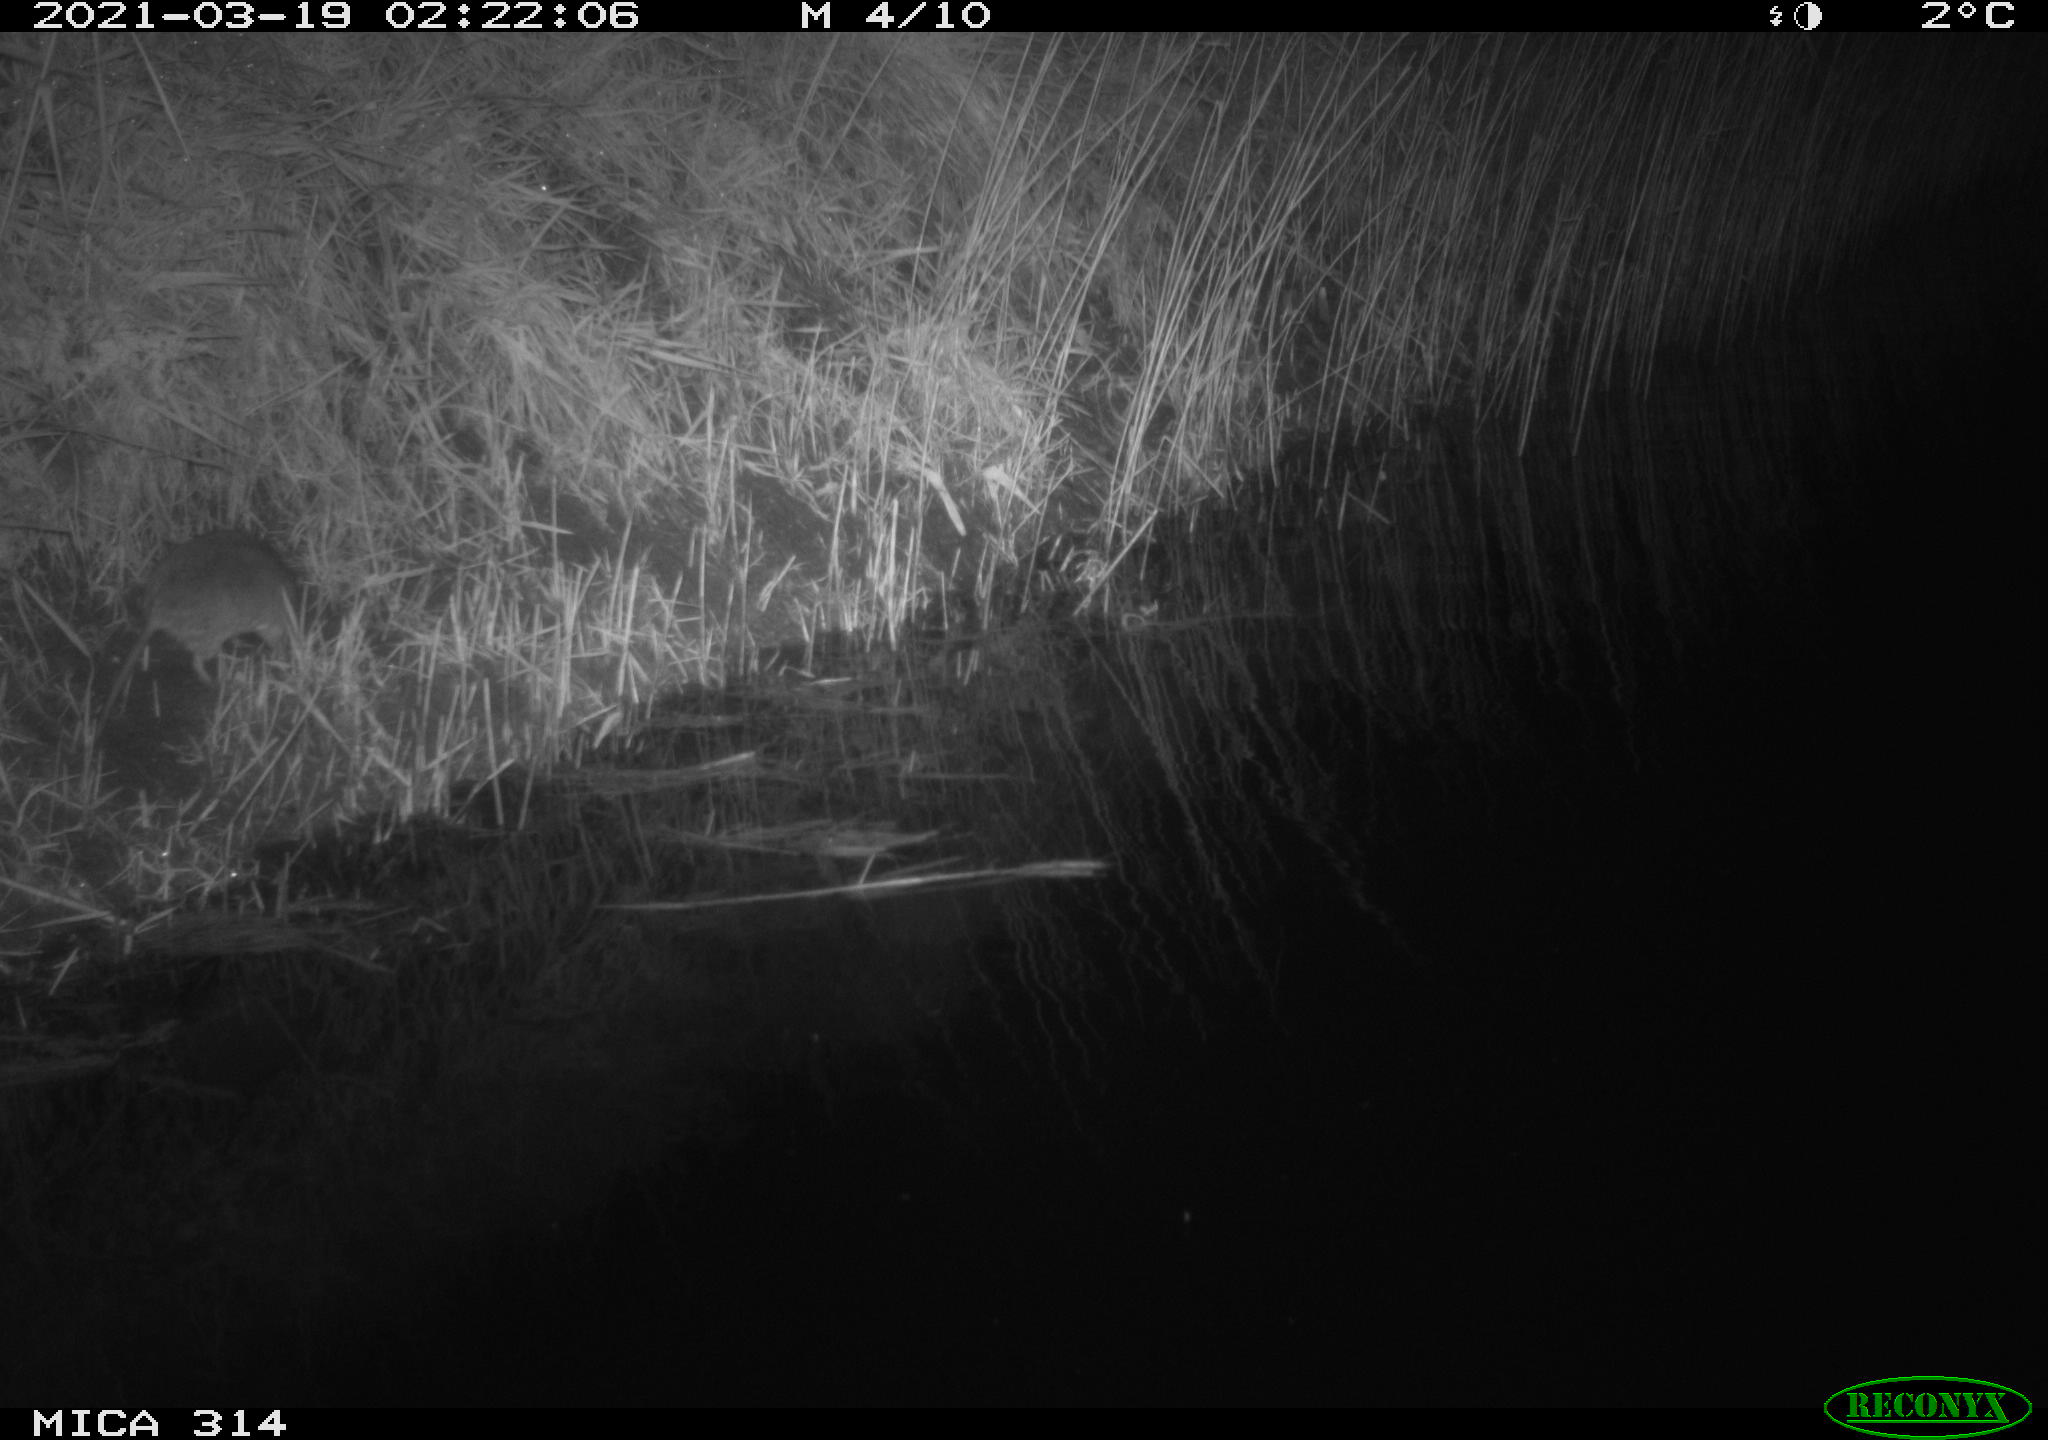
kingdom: Animalia
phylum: Chordata
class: Mammalia
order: Rodentia
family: Muridae
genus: Rattus
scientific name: Rattus norvegicus
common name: Brown rat
